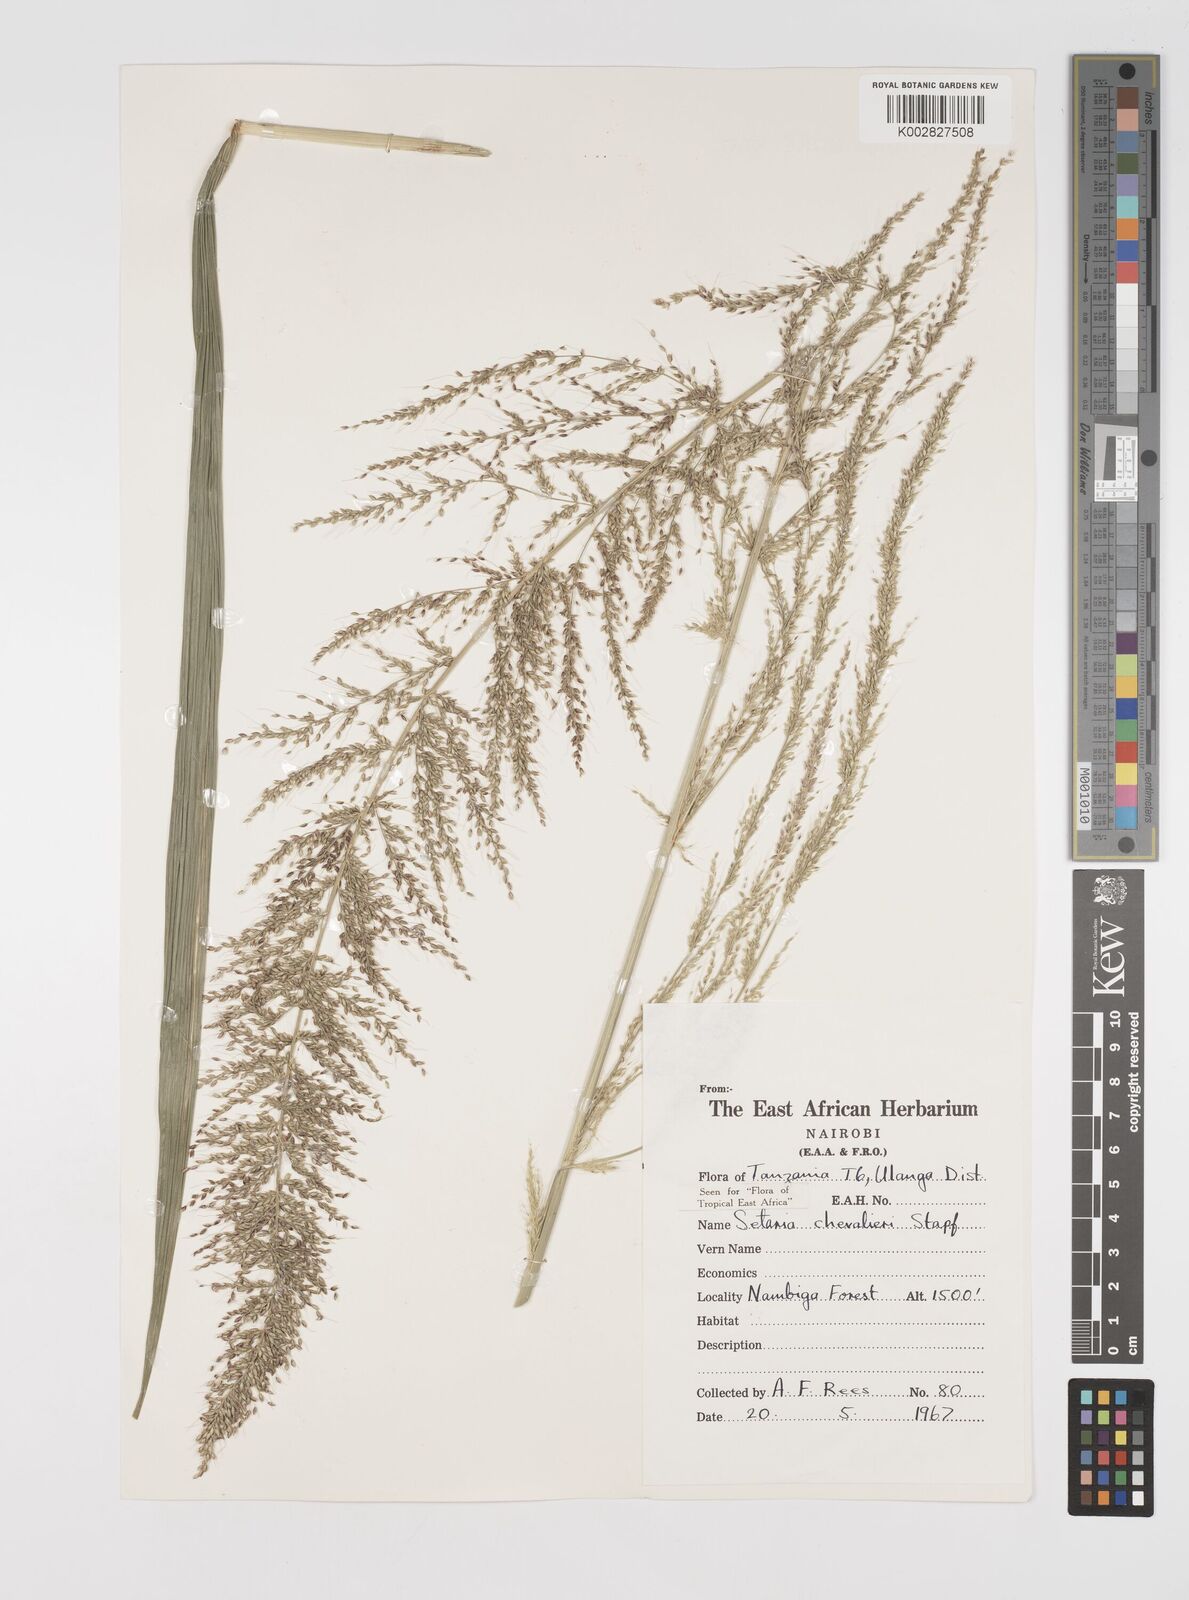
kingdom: Plantae
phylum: Tracheophyta
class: Liliopsida
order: Poales
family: Poaceae
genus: Setaria
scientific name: Setaria megaphylla
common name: Bigleaf bristlegrass
